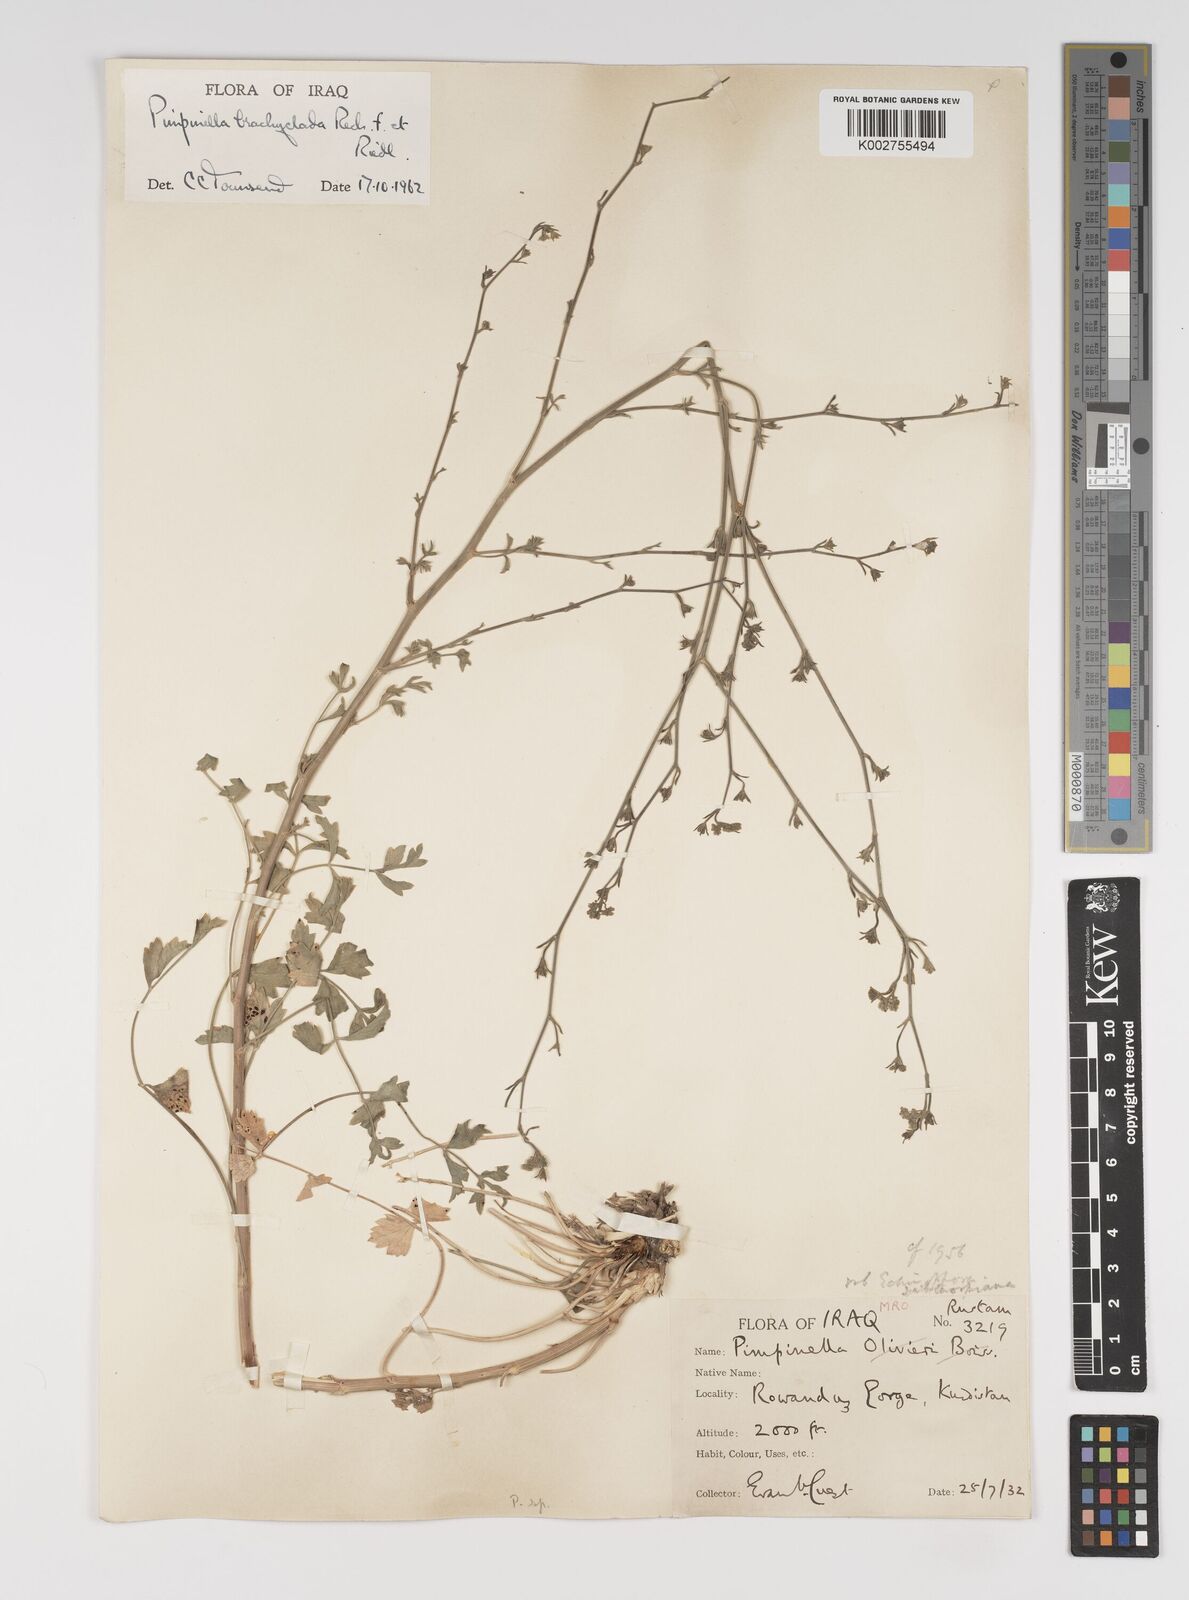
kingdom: Plantae
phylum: Tracheophyta
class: Magnoliopsida
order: Apiales
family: Apiaceae
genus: Pimpinella
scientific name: Pimpinella brachyclada
